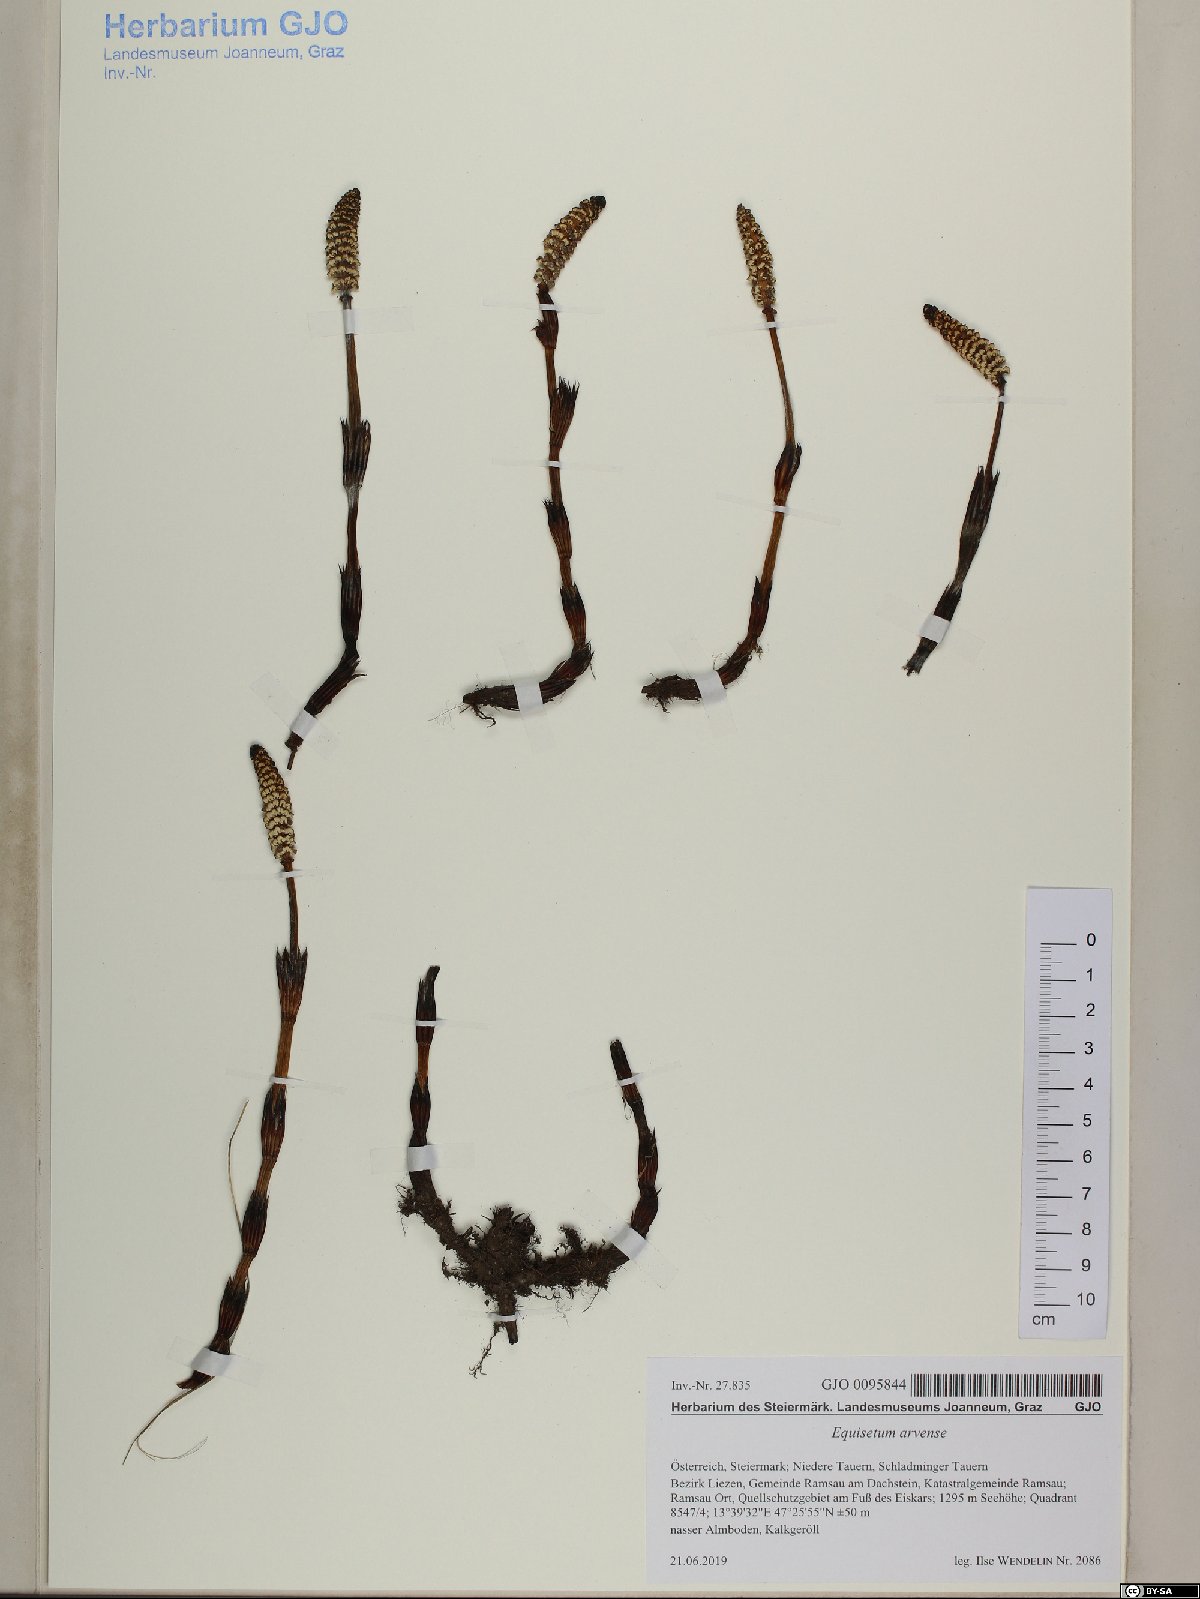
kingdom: Plantae
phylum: Tracheophyta
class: Polypodiopsida
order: Equisetales
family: Equisetaceae
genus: Equisetum
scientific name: Equisetum arvense
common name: Field horsetail
